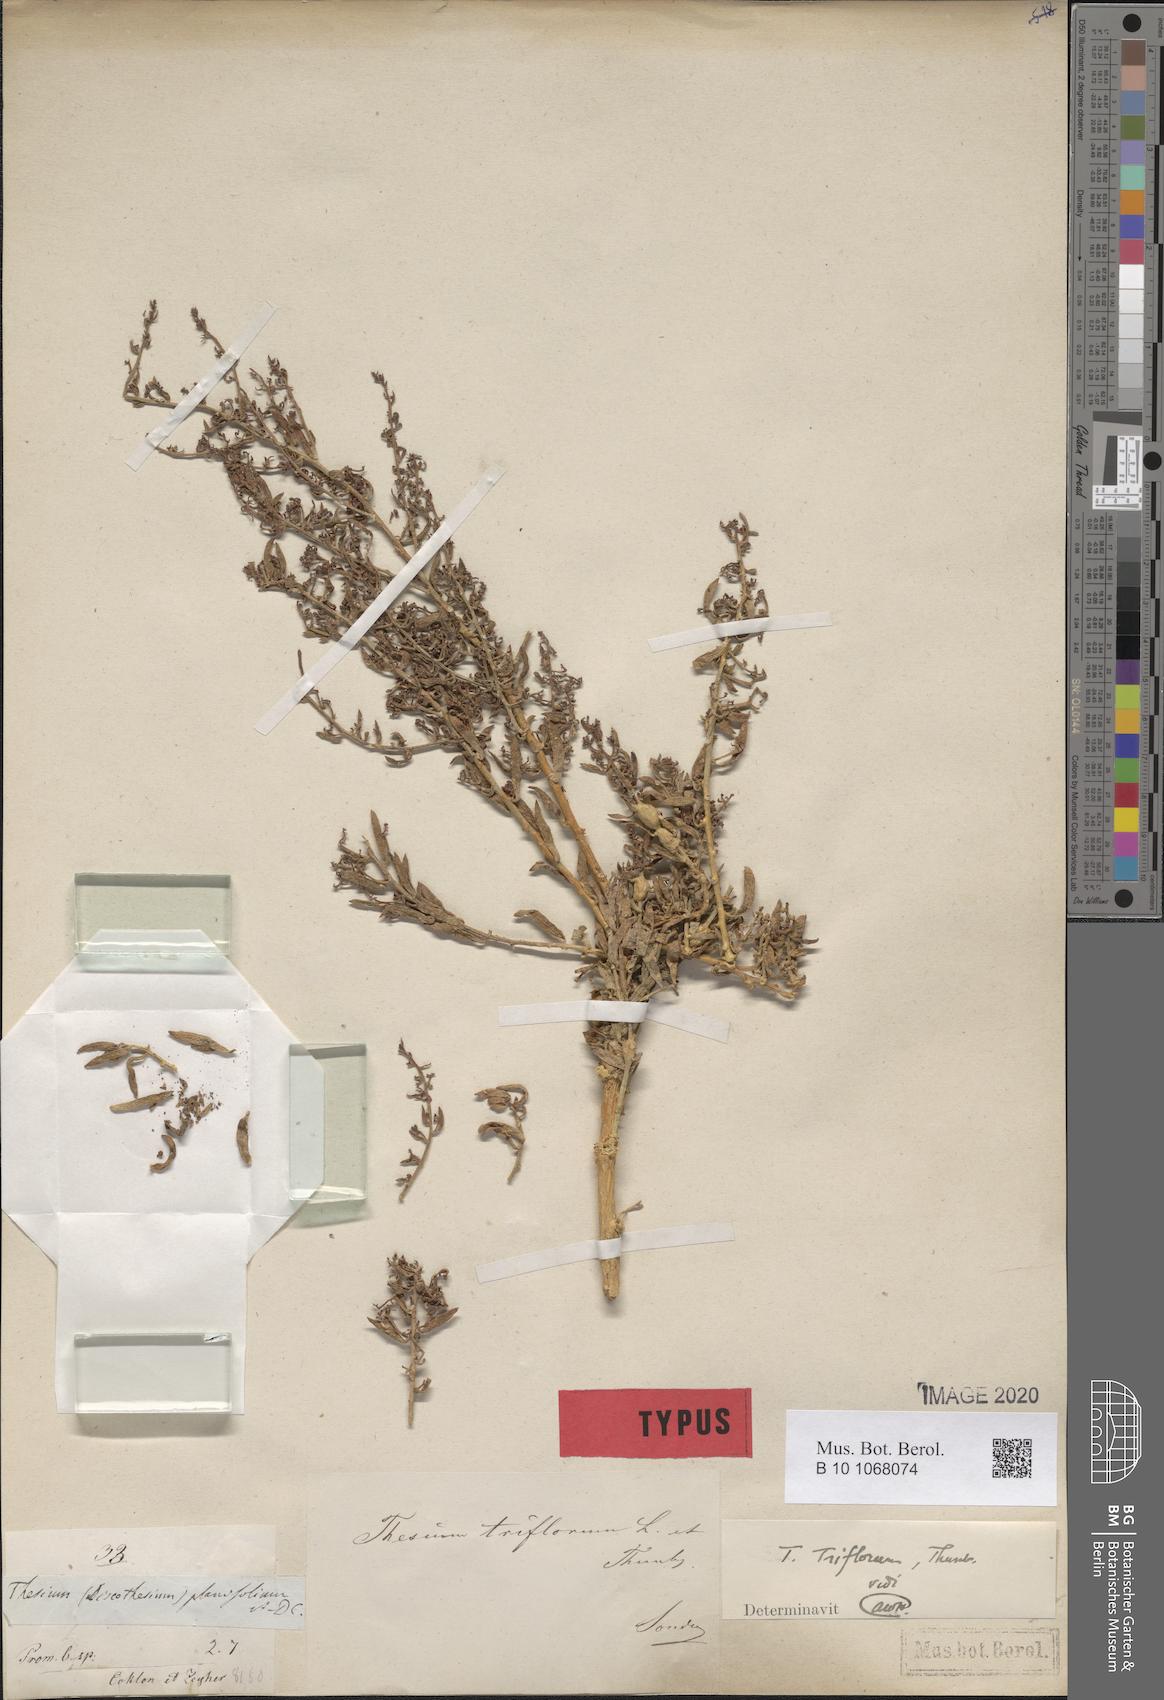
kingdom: Plantae
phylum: Tracheophyta
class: Magnoliopsida
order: Santalales
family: Thesiaceae
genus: Thesium
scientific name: Thesium triflorum
